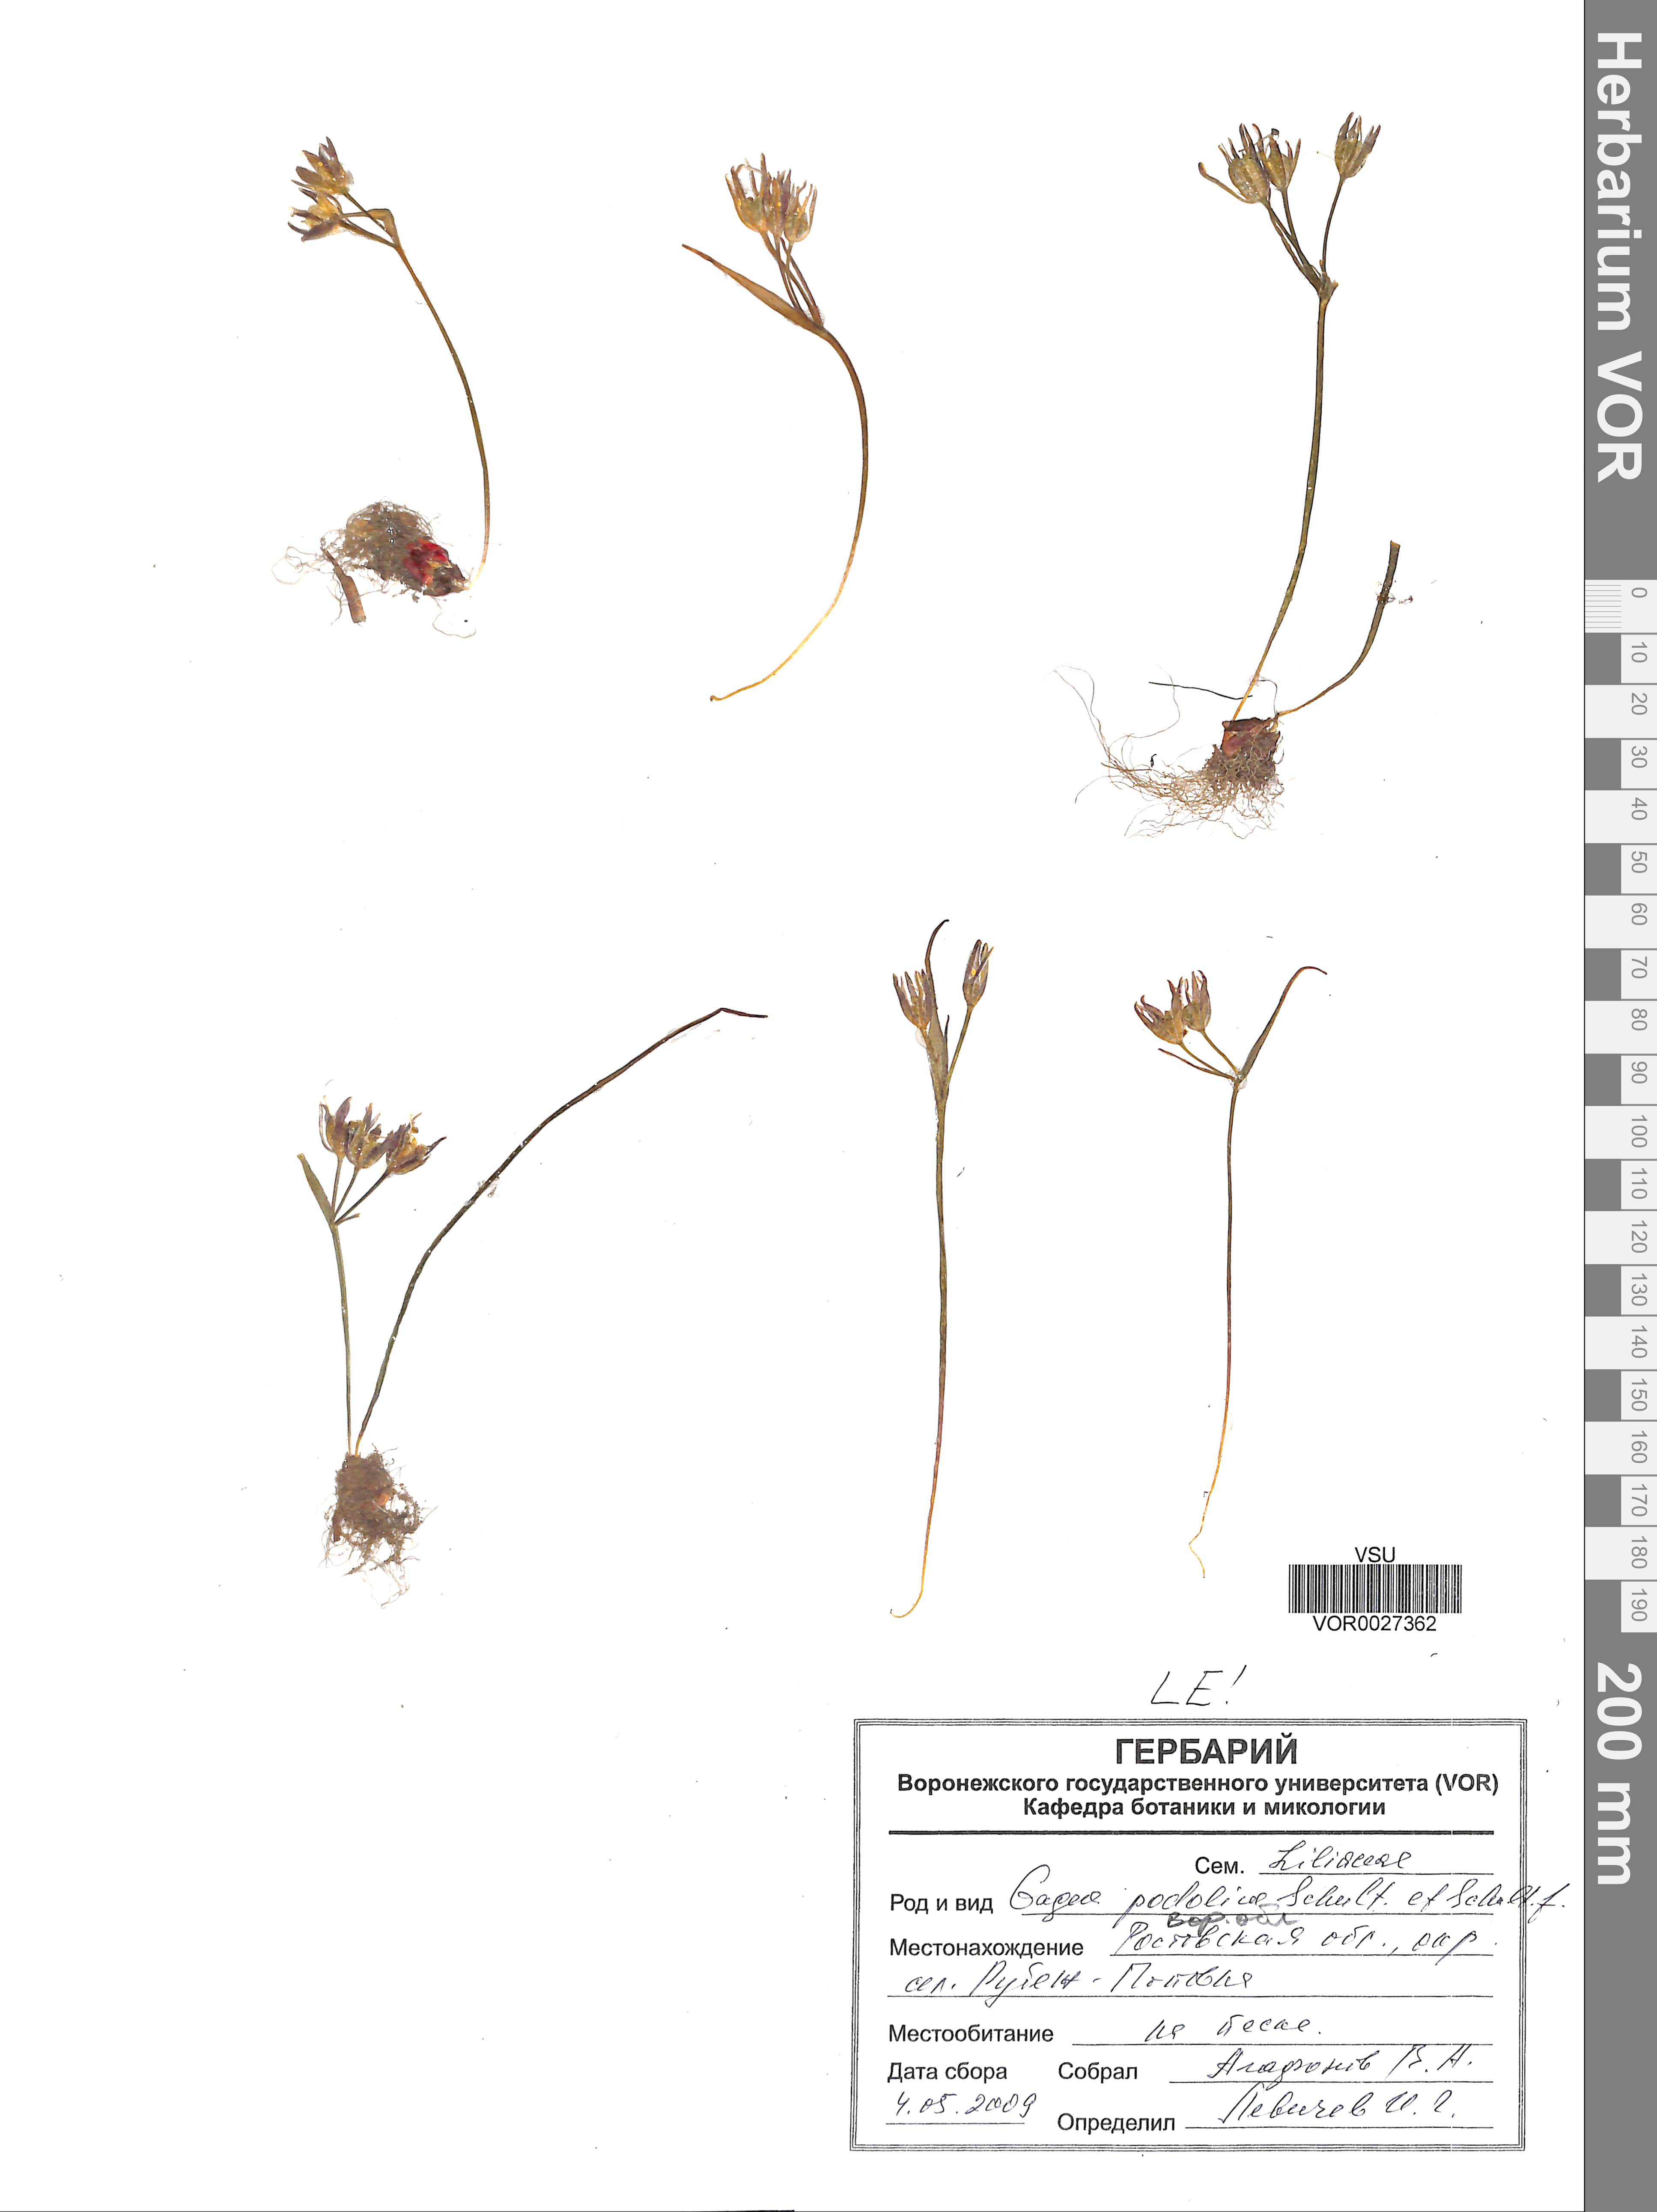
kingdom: Plantae
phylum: Tracheophyta
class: Liliopsida
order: Liliales
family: Liliaceae
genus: Gagea
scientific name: Gagea podolica
